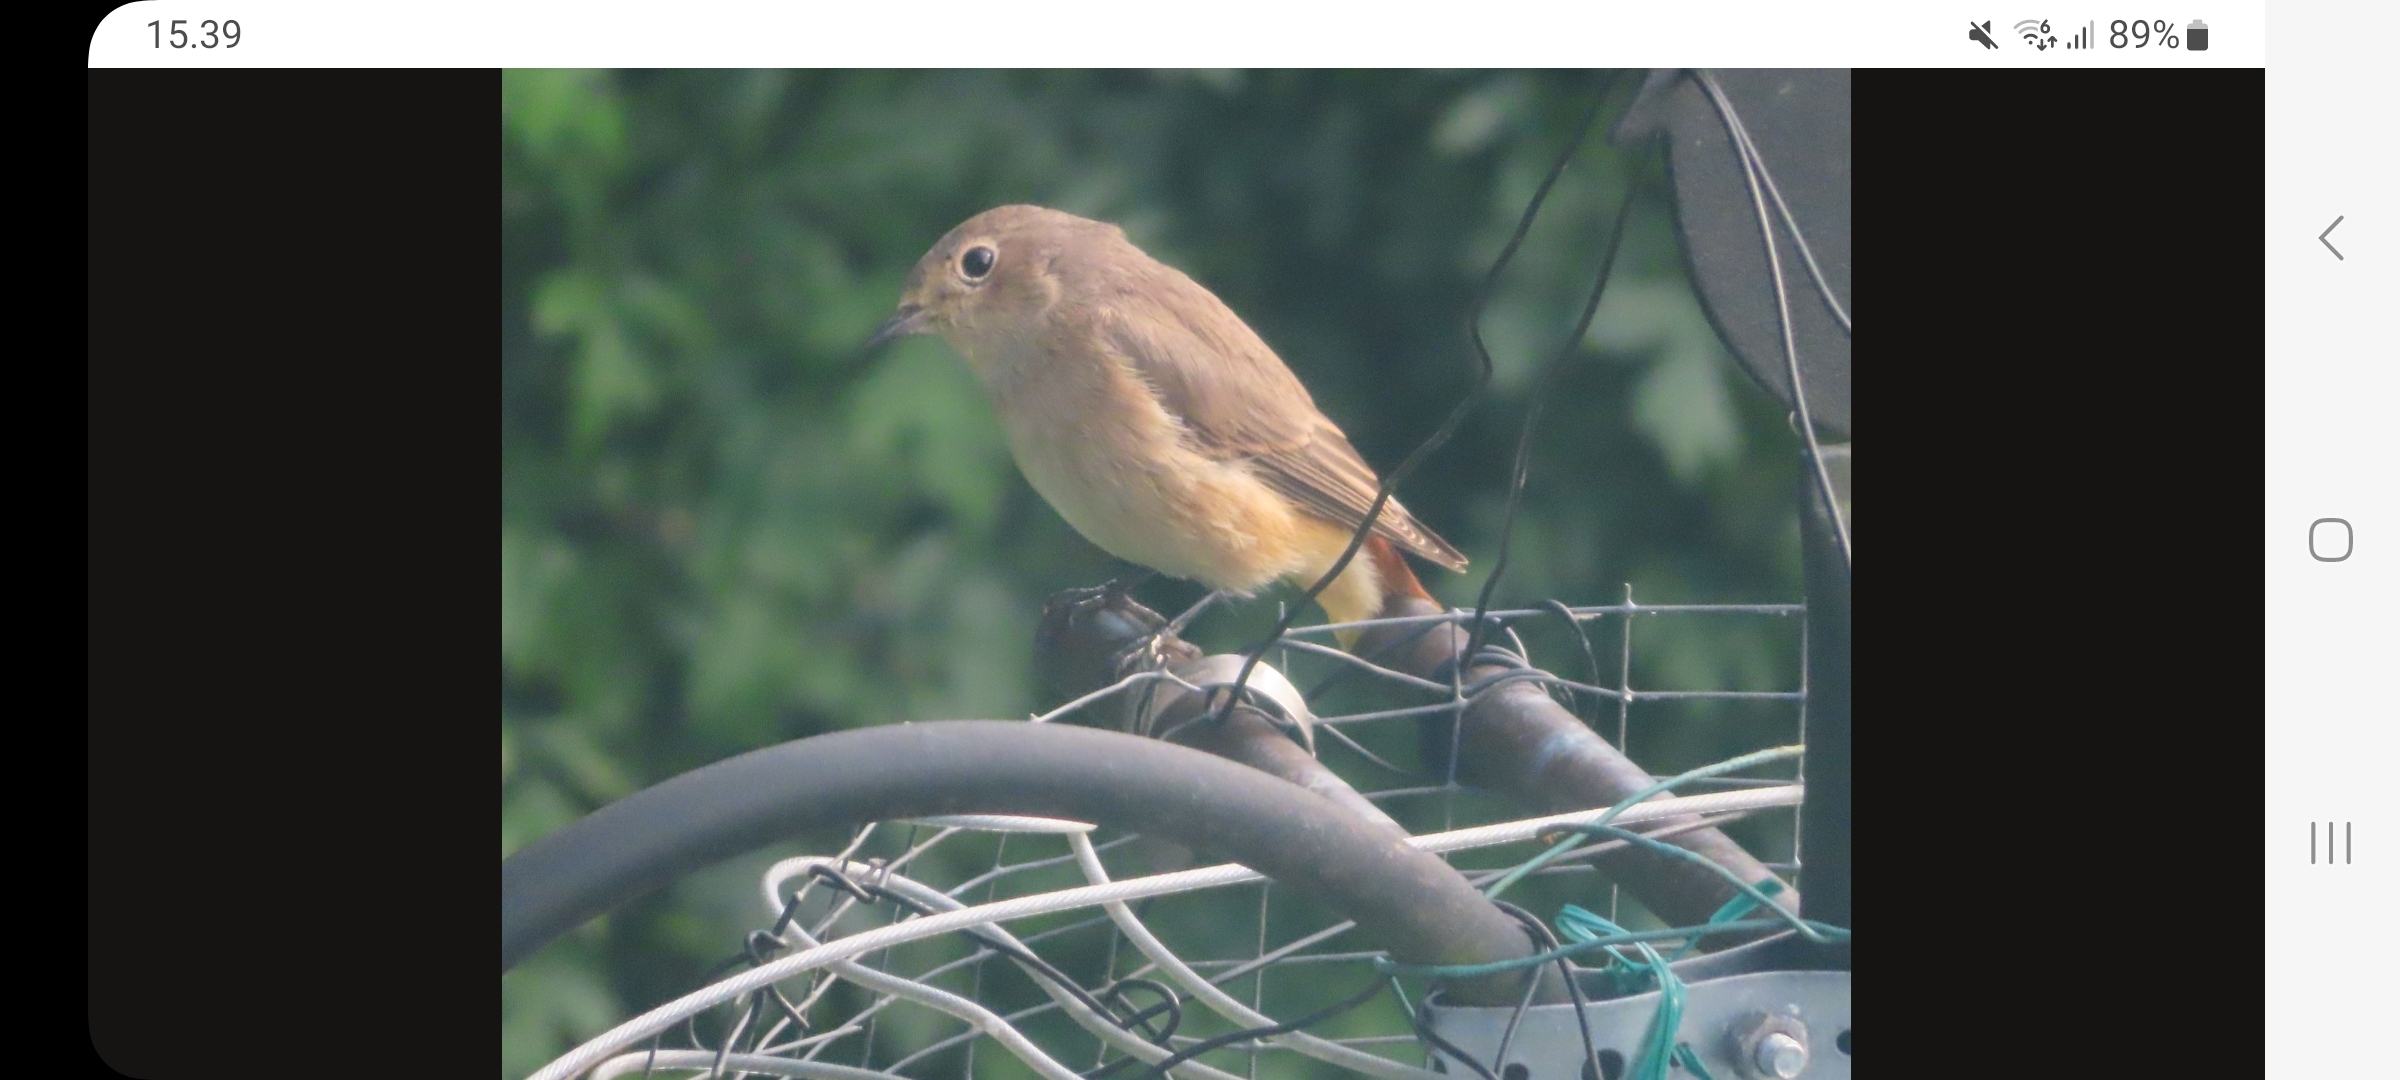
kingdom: Animalia
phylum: Chordata
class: Aves
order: Passeriformes
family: Muscicapidae
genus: Phoenicurus
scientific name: Phoenicurus phoenicurus
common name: Rødstjert
